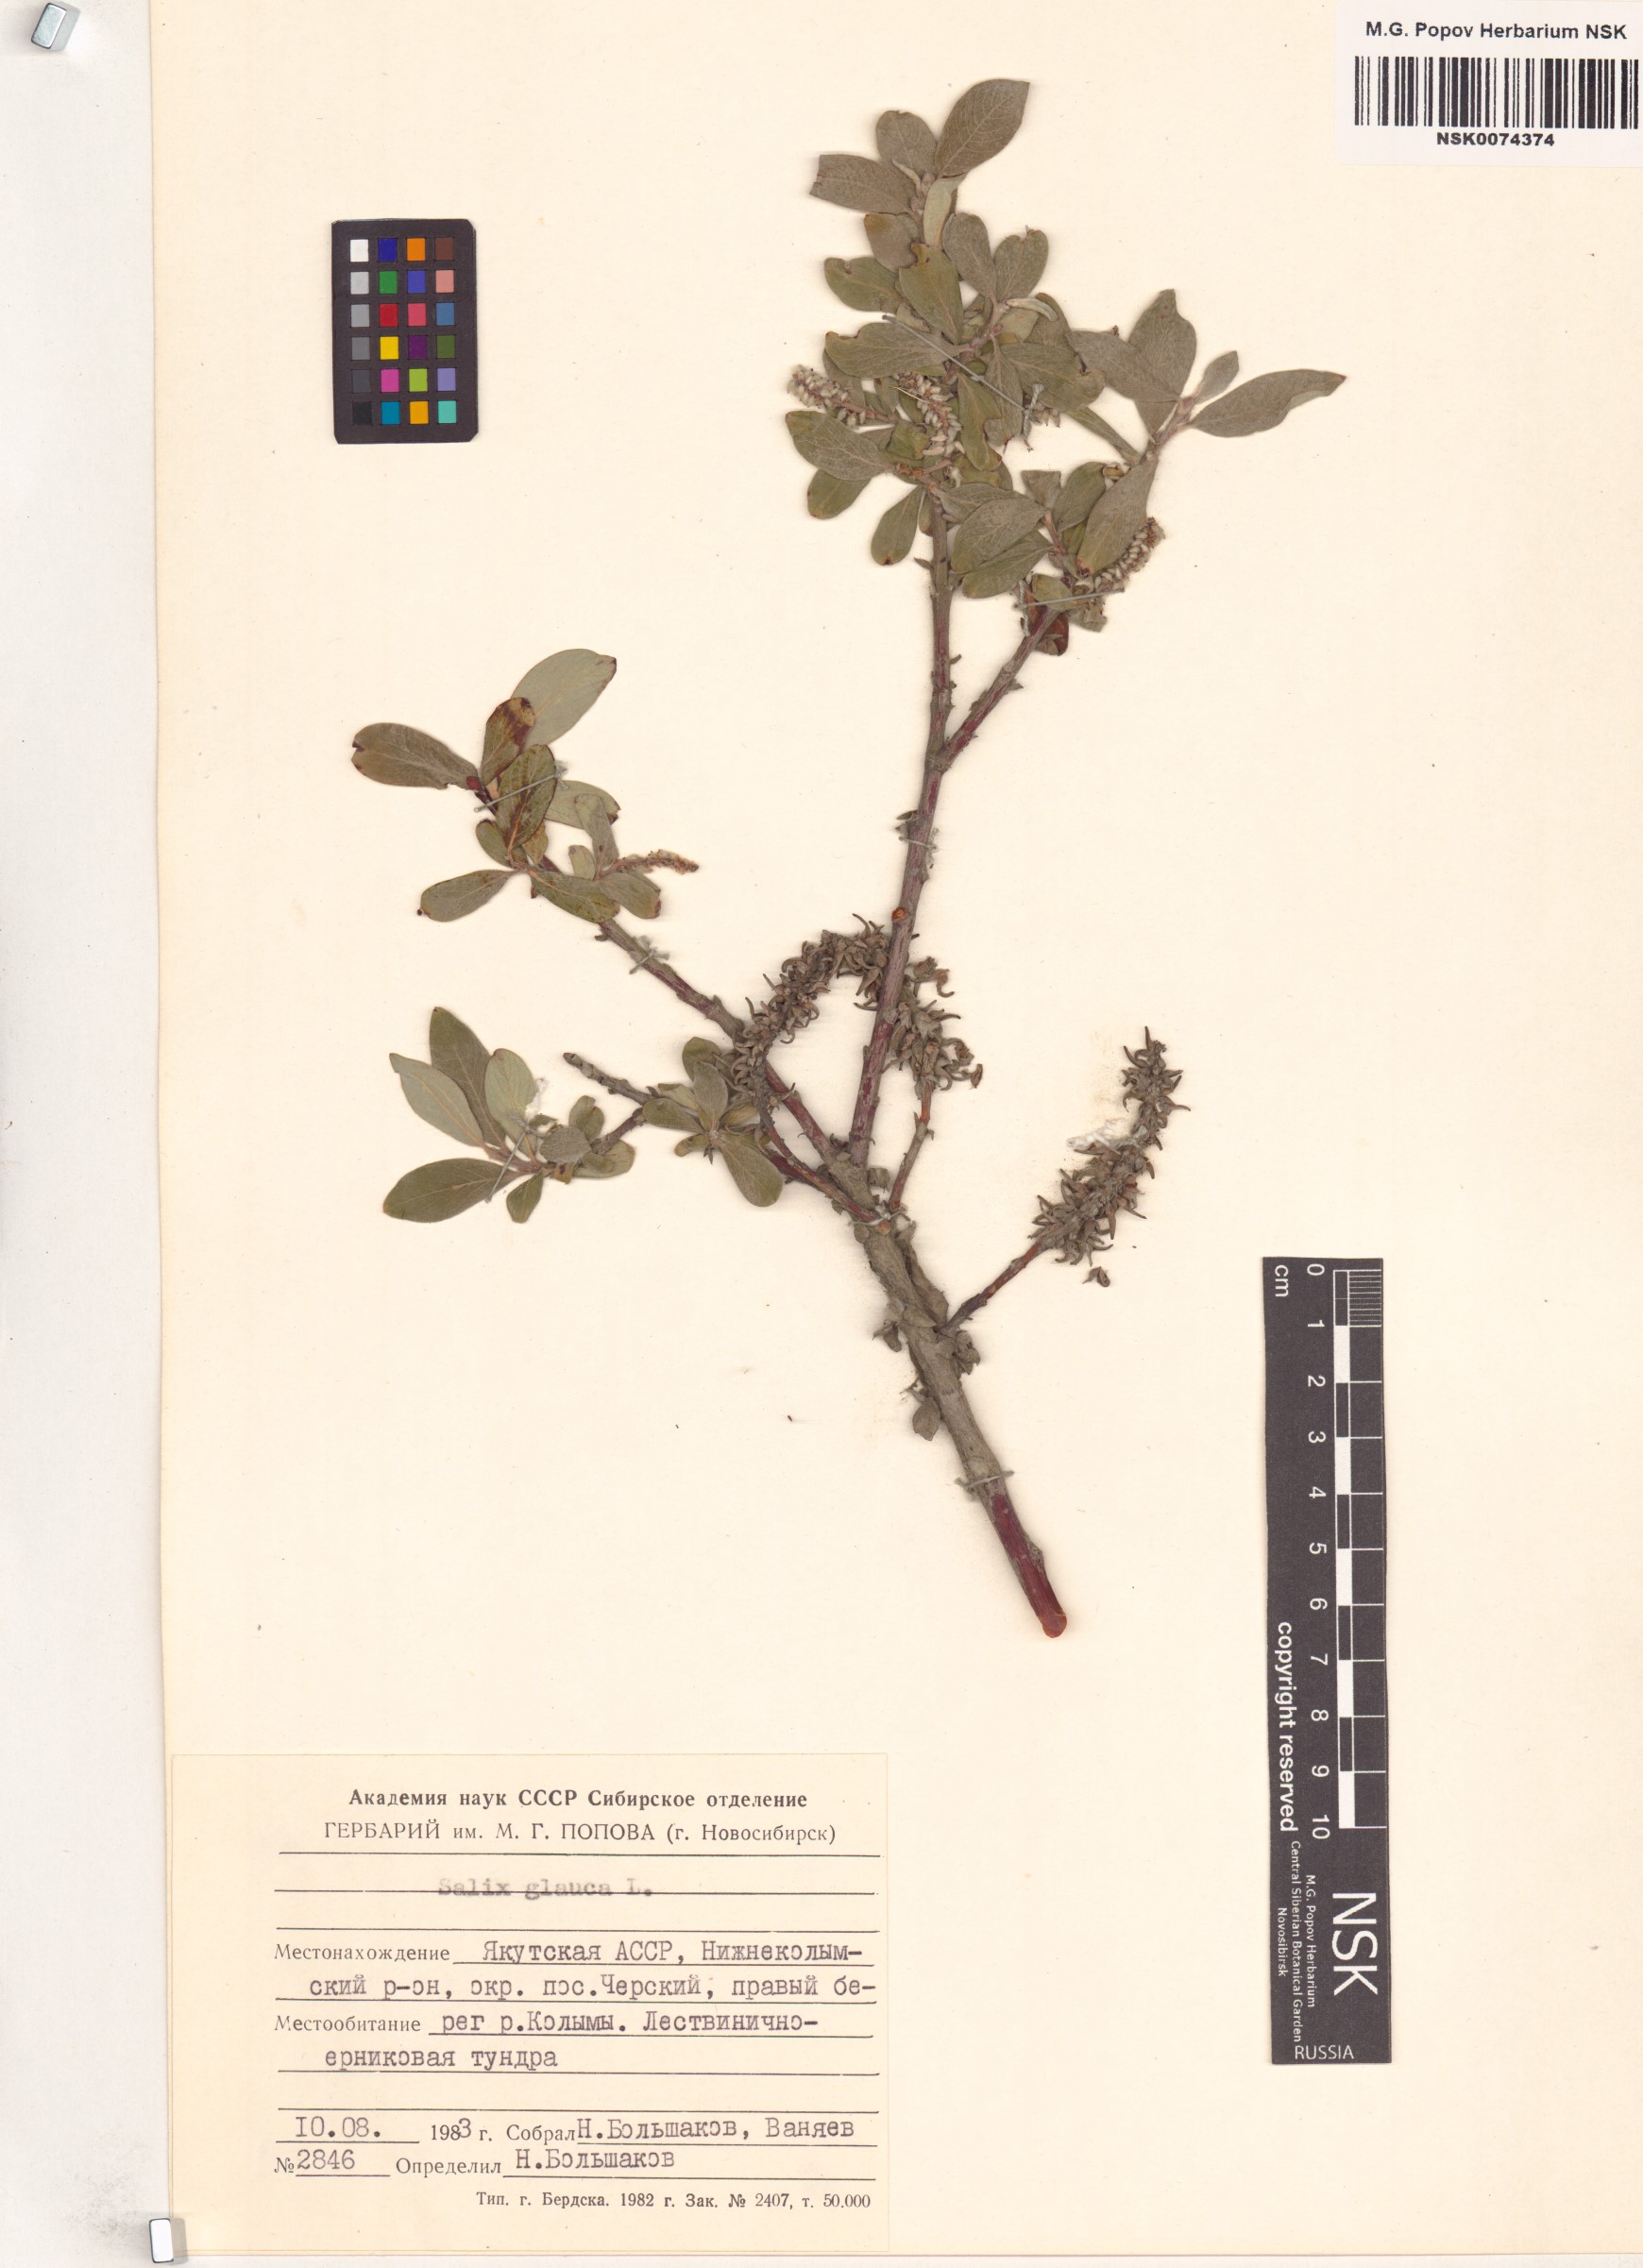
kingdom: Plantae
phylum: Tracheophyta
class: Magnoliopsida
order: Malpighiales
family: Salicaceae
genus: Salix
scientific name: Salix glauca
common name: Glaucous willow
